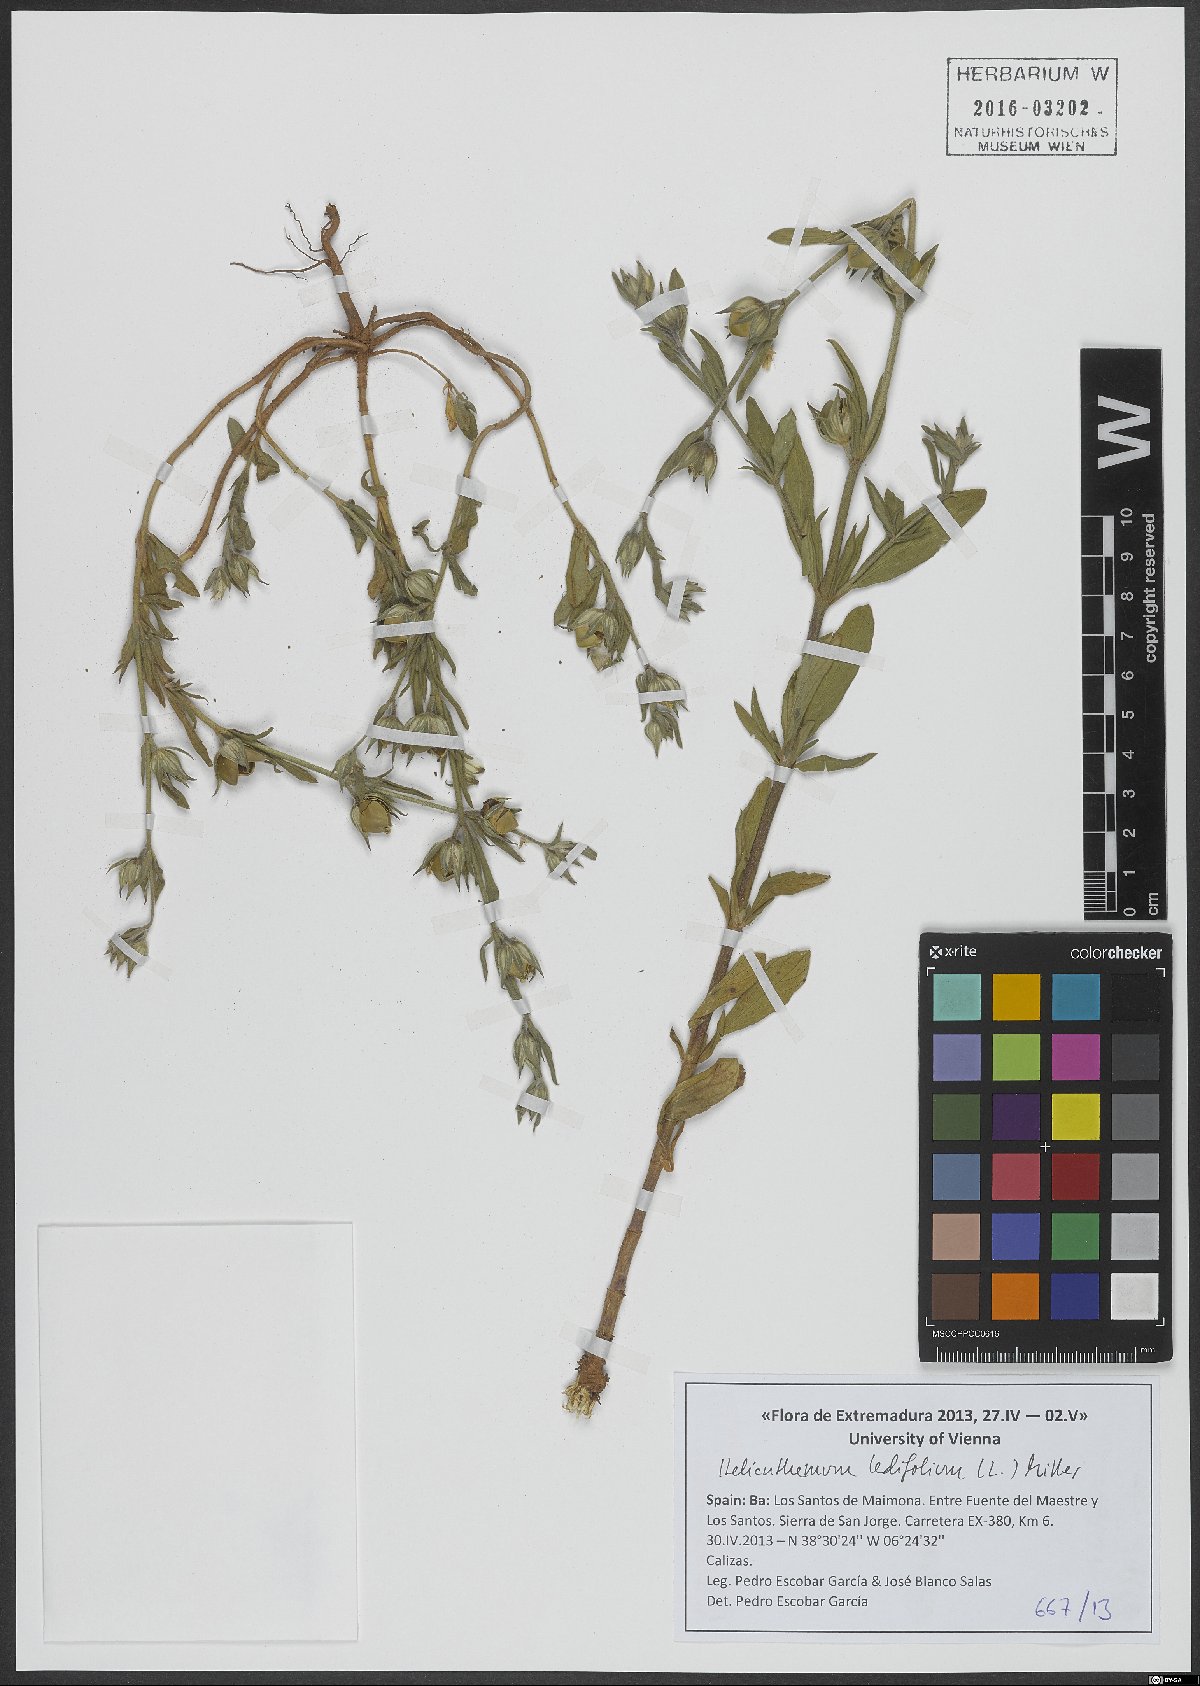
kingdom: Plantae
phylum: Tracheophyta
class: Magnoliopsida
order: Malvales
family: Cistaceae
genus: Helianthemum
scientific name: Helianthemum ledifolium
